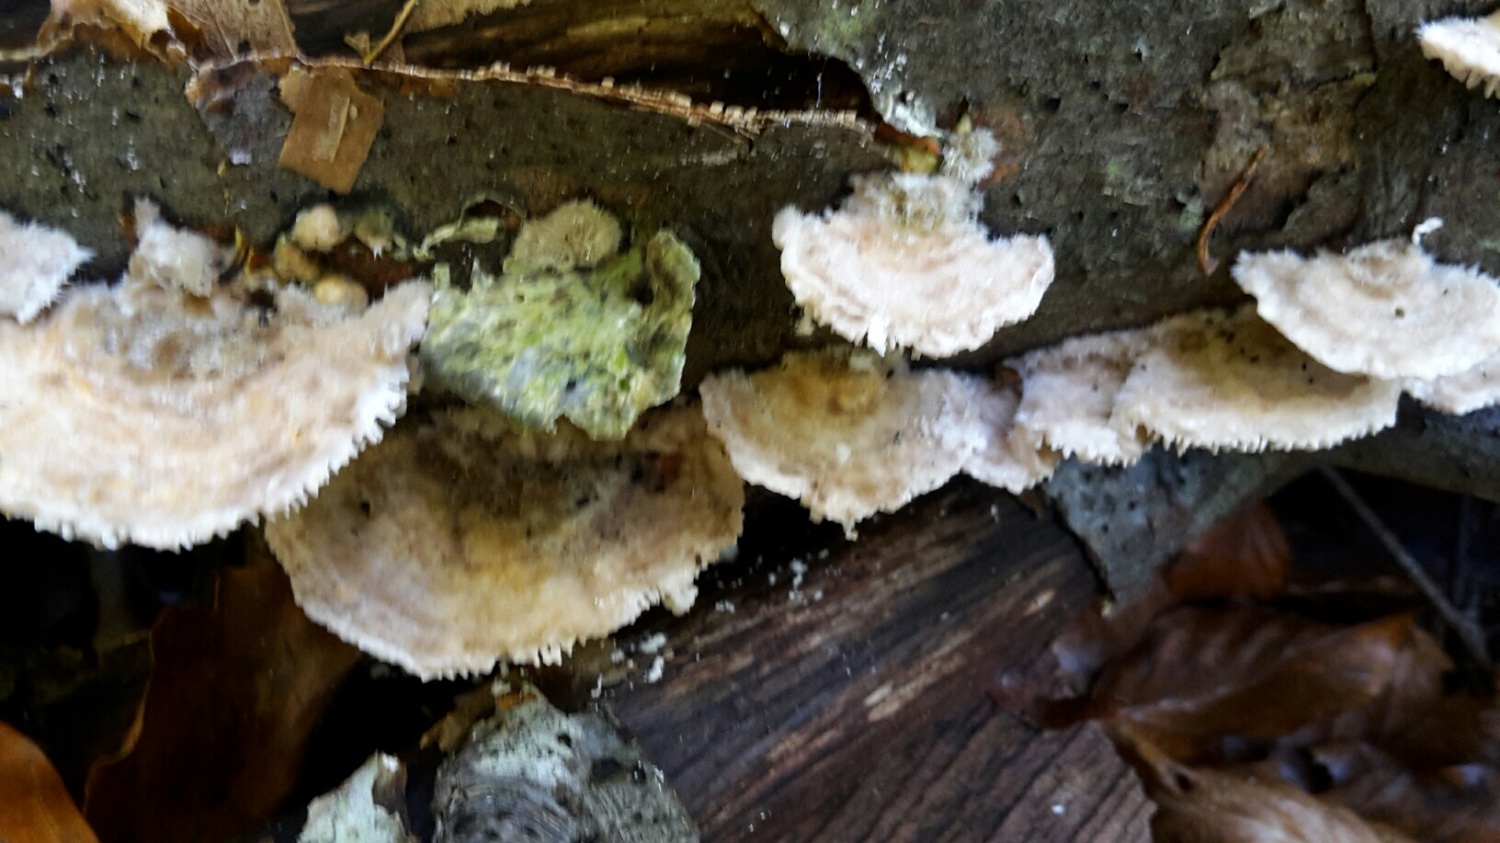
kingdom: Fungi
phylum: Basidiomycota
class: Agaricomycetes
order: Polyporales
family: Polyporaceae
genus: Lenzites
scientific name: Lenzites betulinus
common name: birke-læderporesvamp
